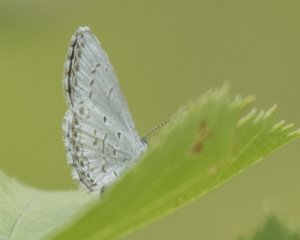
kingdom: Animalia
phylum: Arthropoda
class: Insecta
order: Lepidoptera
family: Lycaenidae
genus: Cyaniris
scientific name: Cyaniris neglecta
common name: Summer Azure
